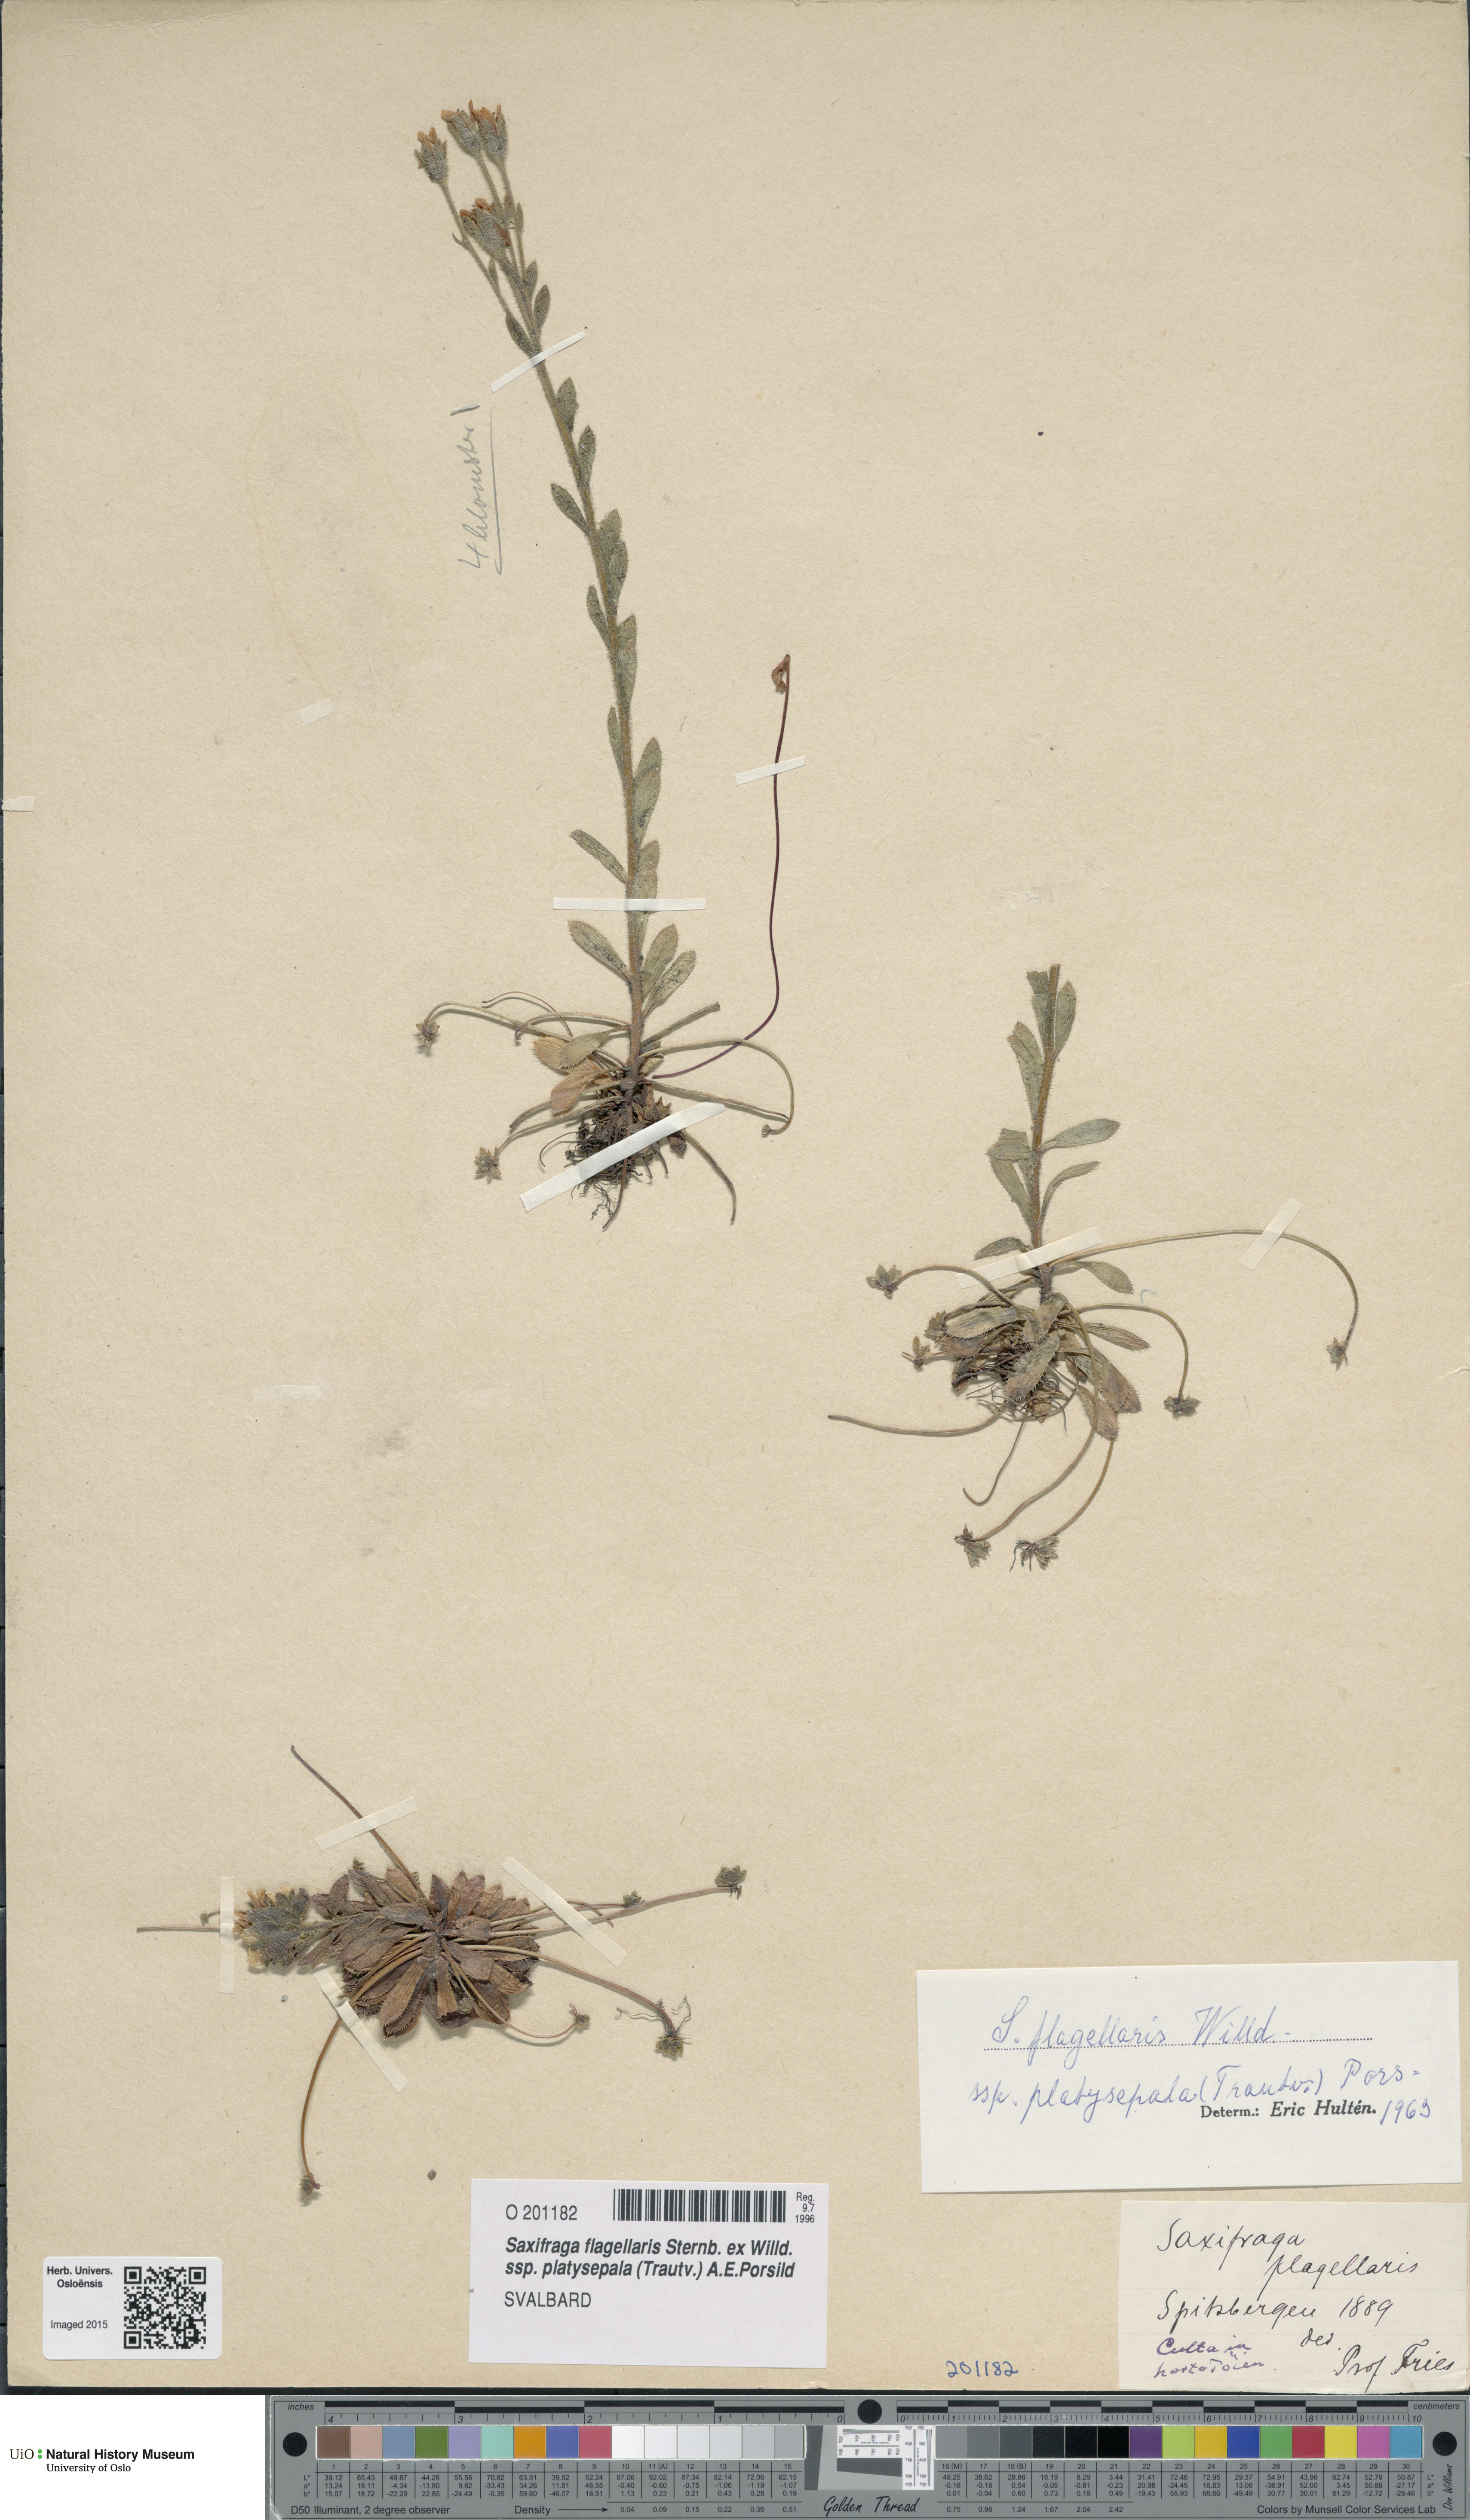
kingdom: Plantae
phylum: Tracheophyta
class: Magnoliopsida
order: Saxifragales
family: Saxifragaceae
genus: Saxifraga
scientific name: Saxifraga platysepala
